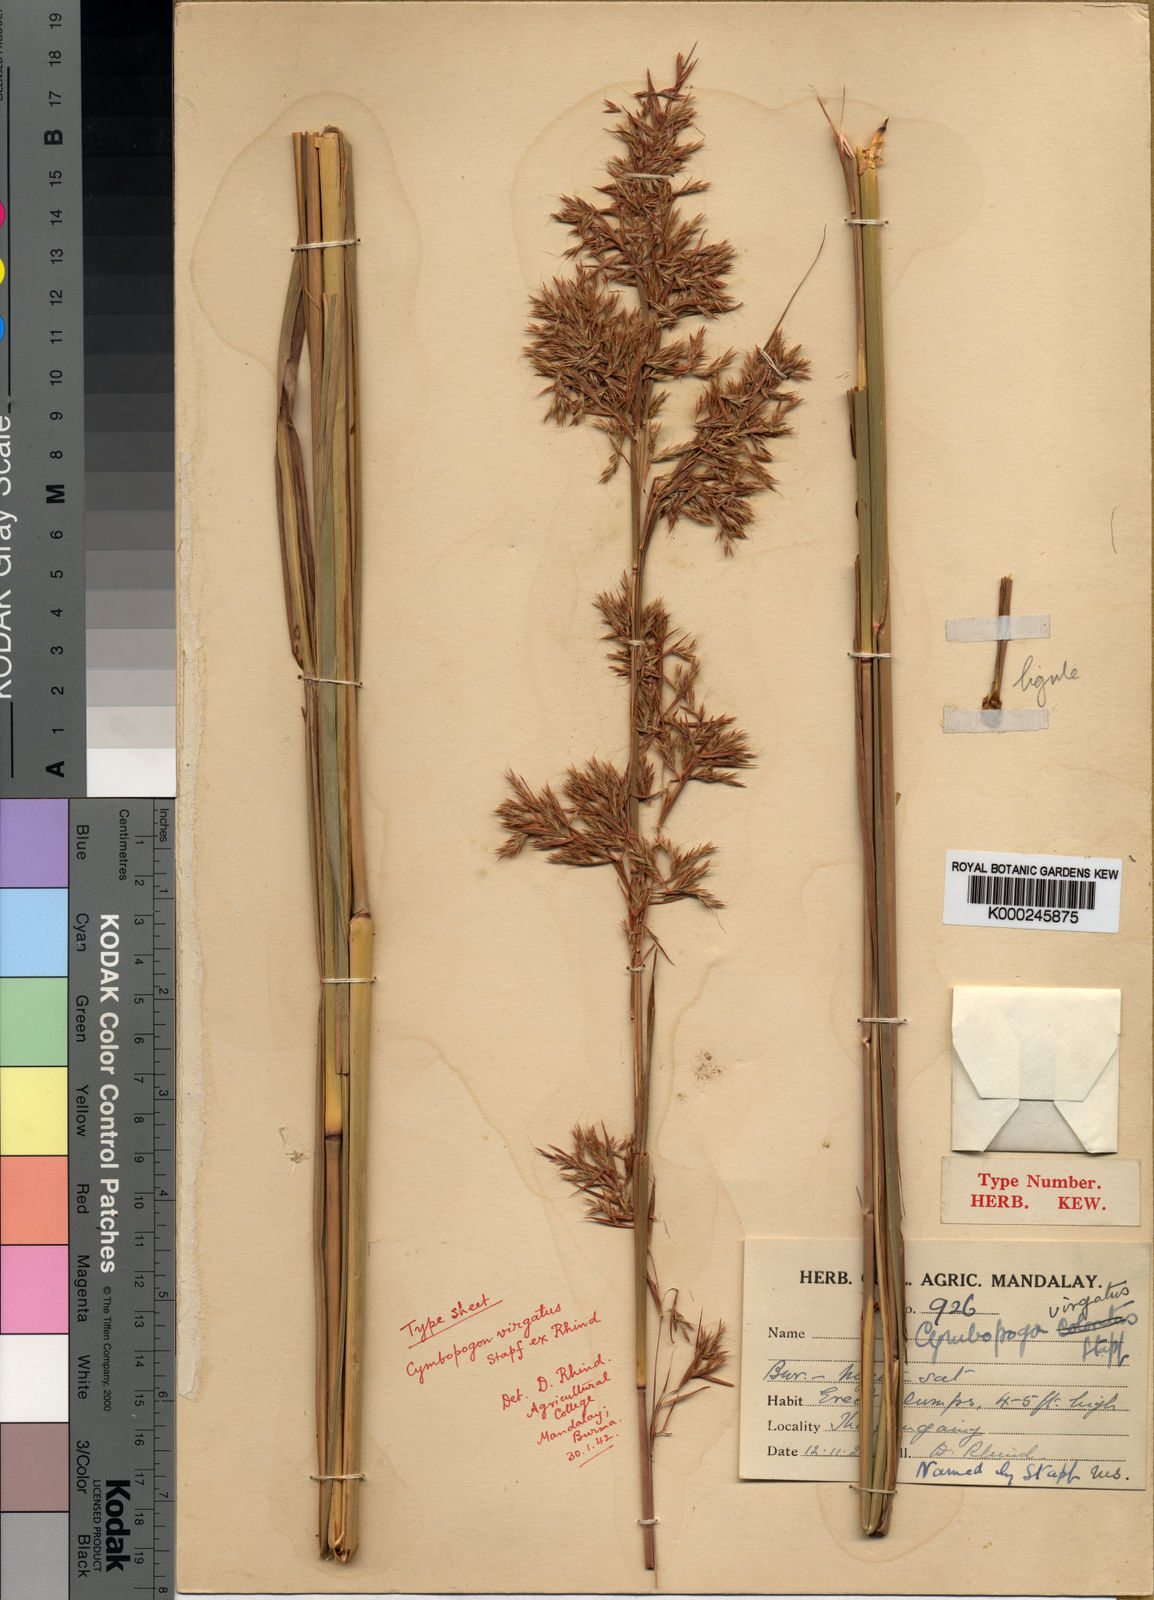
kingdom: Plantae
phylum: Tracheophyta
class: Liliopsida
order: Poales
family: Poaceae
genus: Cymbopogon
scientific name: Cymbopogon nardus
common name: Giant turpentine grass
